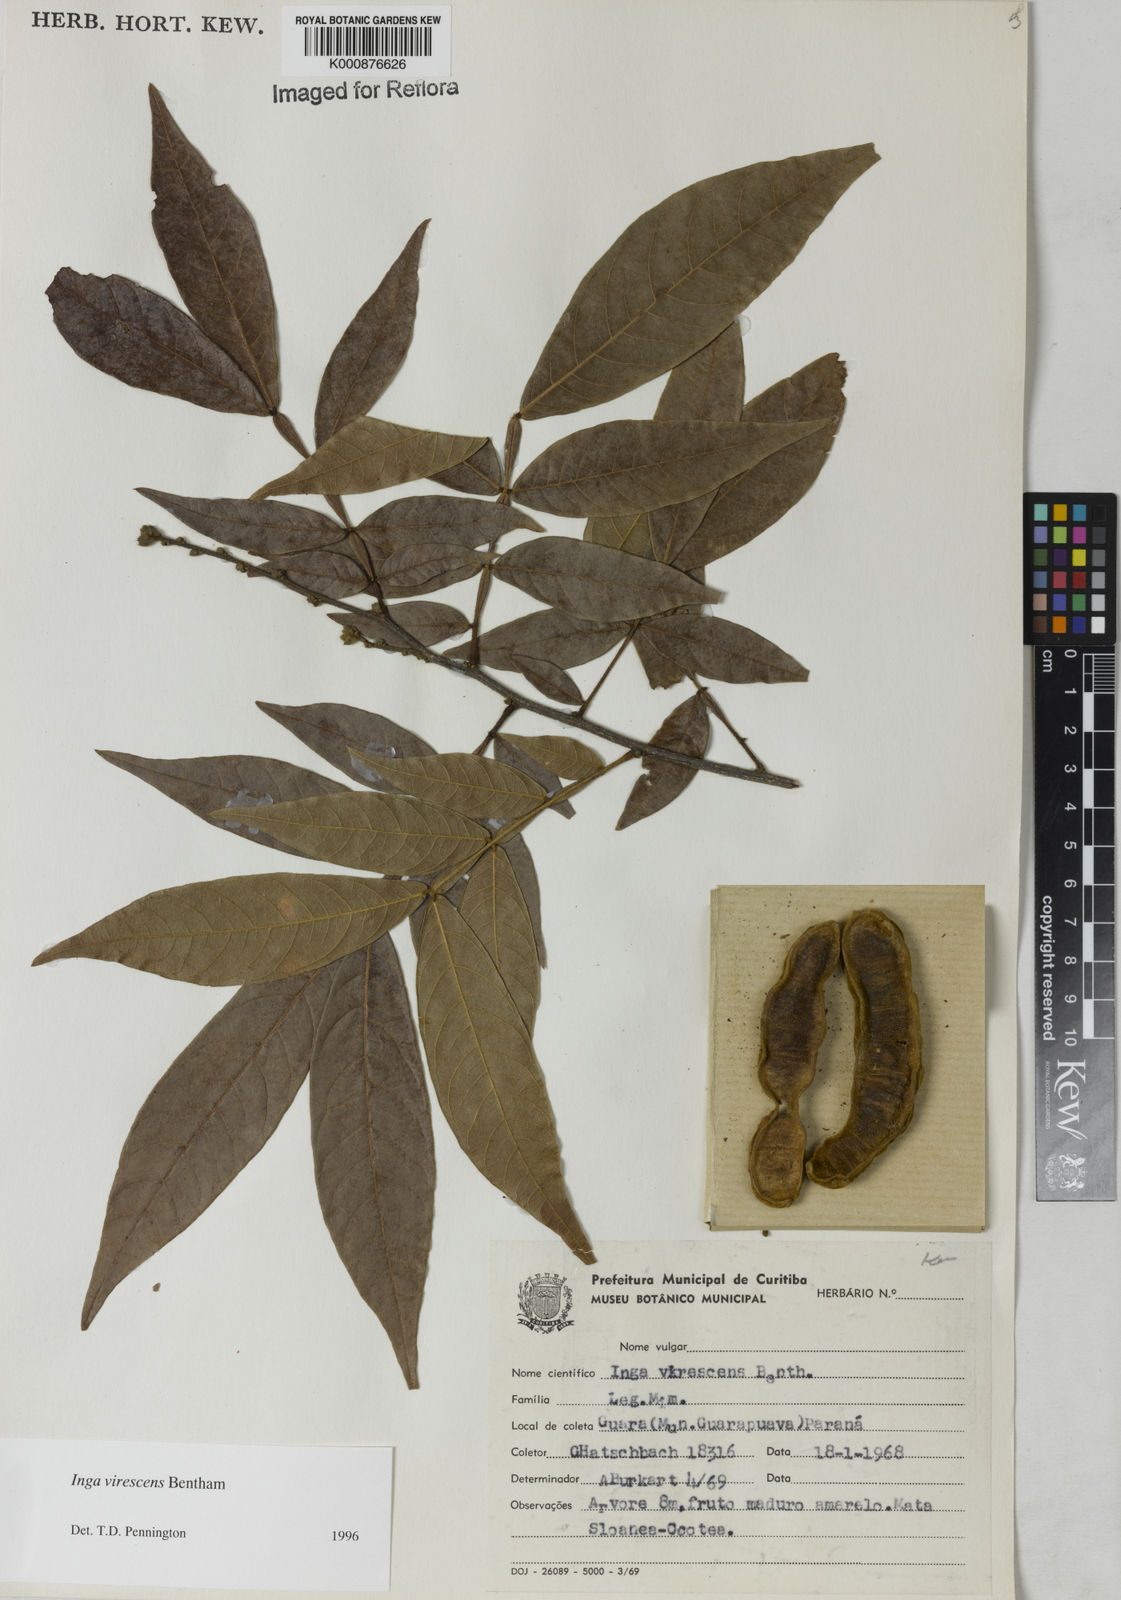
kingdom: Plantae
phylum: Tracheophyta
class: Magnoliopsida
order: Fabales
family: Fabaceae
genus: Inga
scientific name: Inga virescens
